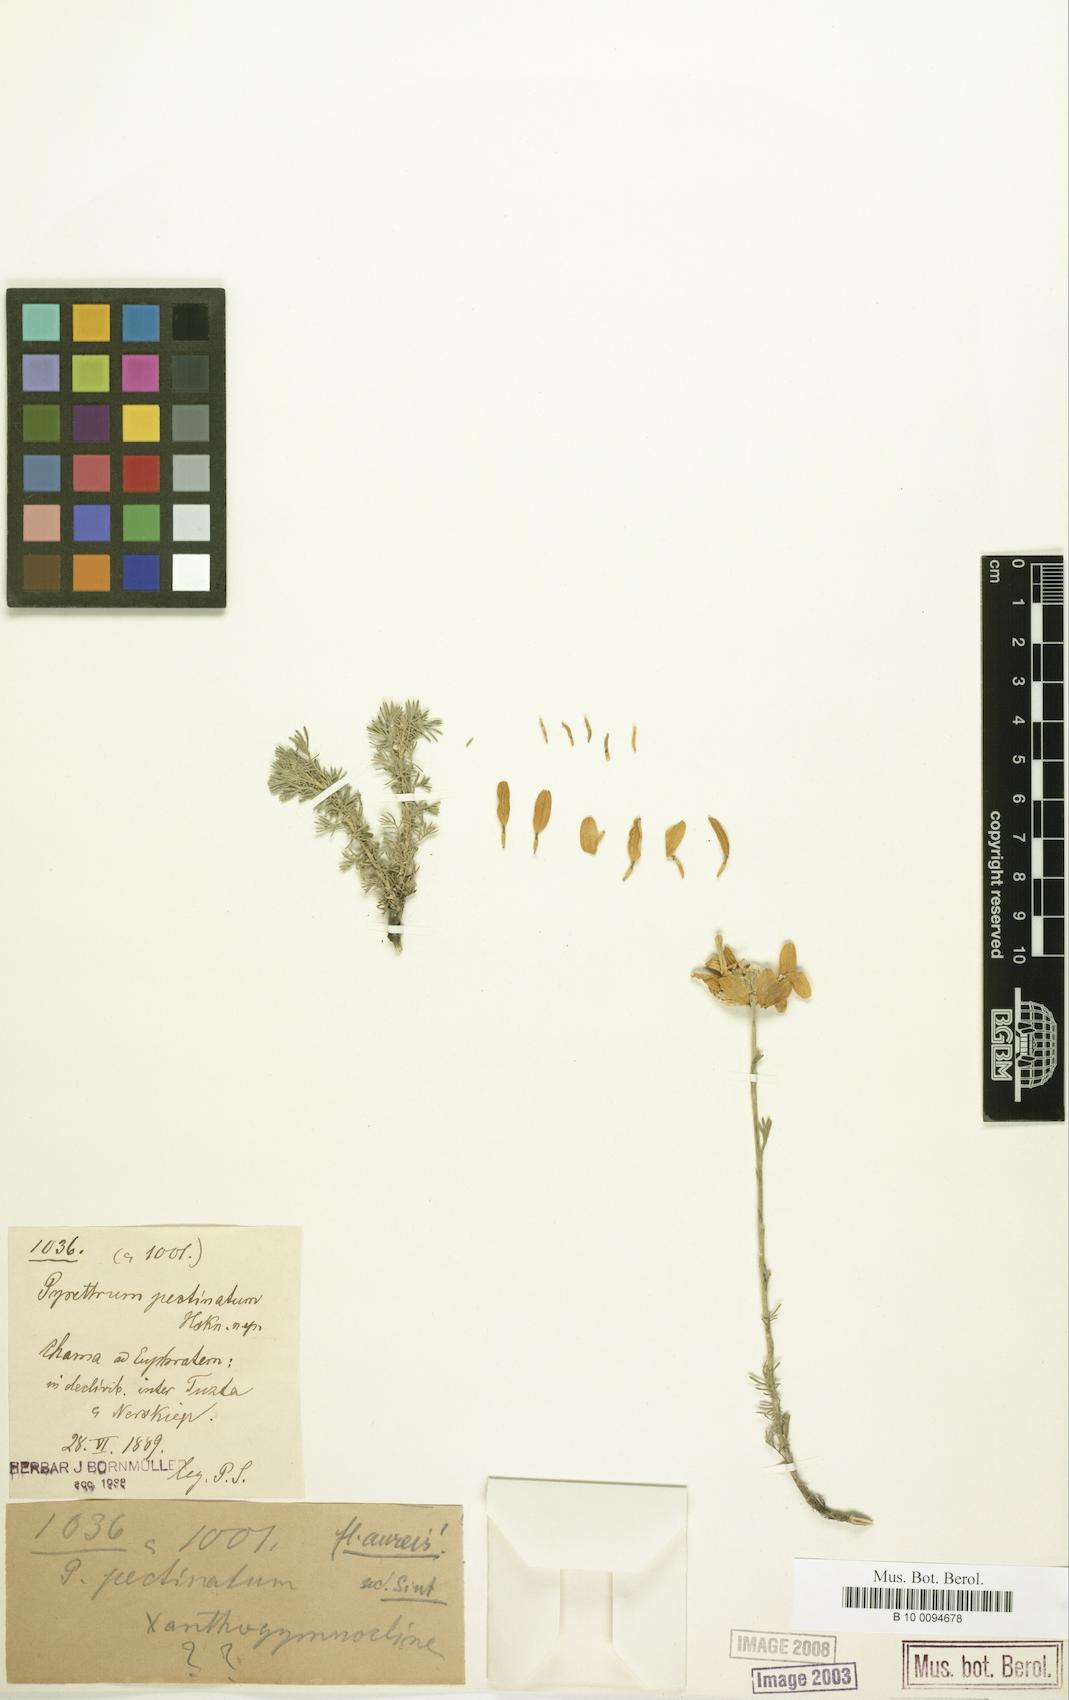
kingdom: Plantae
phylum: Tracheophyta
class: Magnoliopsida
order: Asterales
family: Asteraceae
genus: Tanacetum
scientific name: Tanacetum
